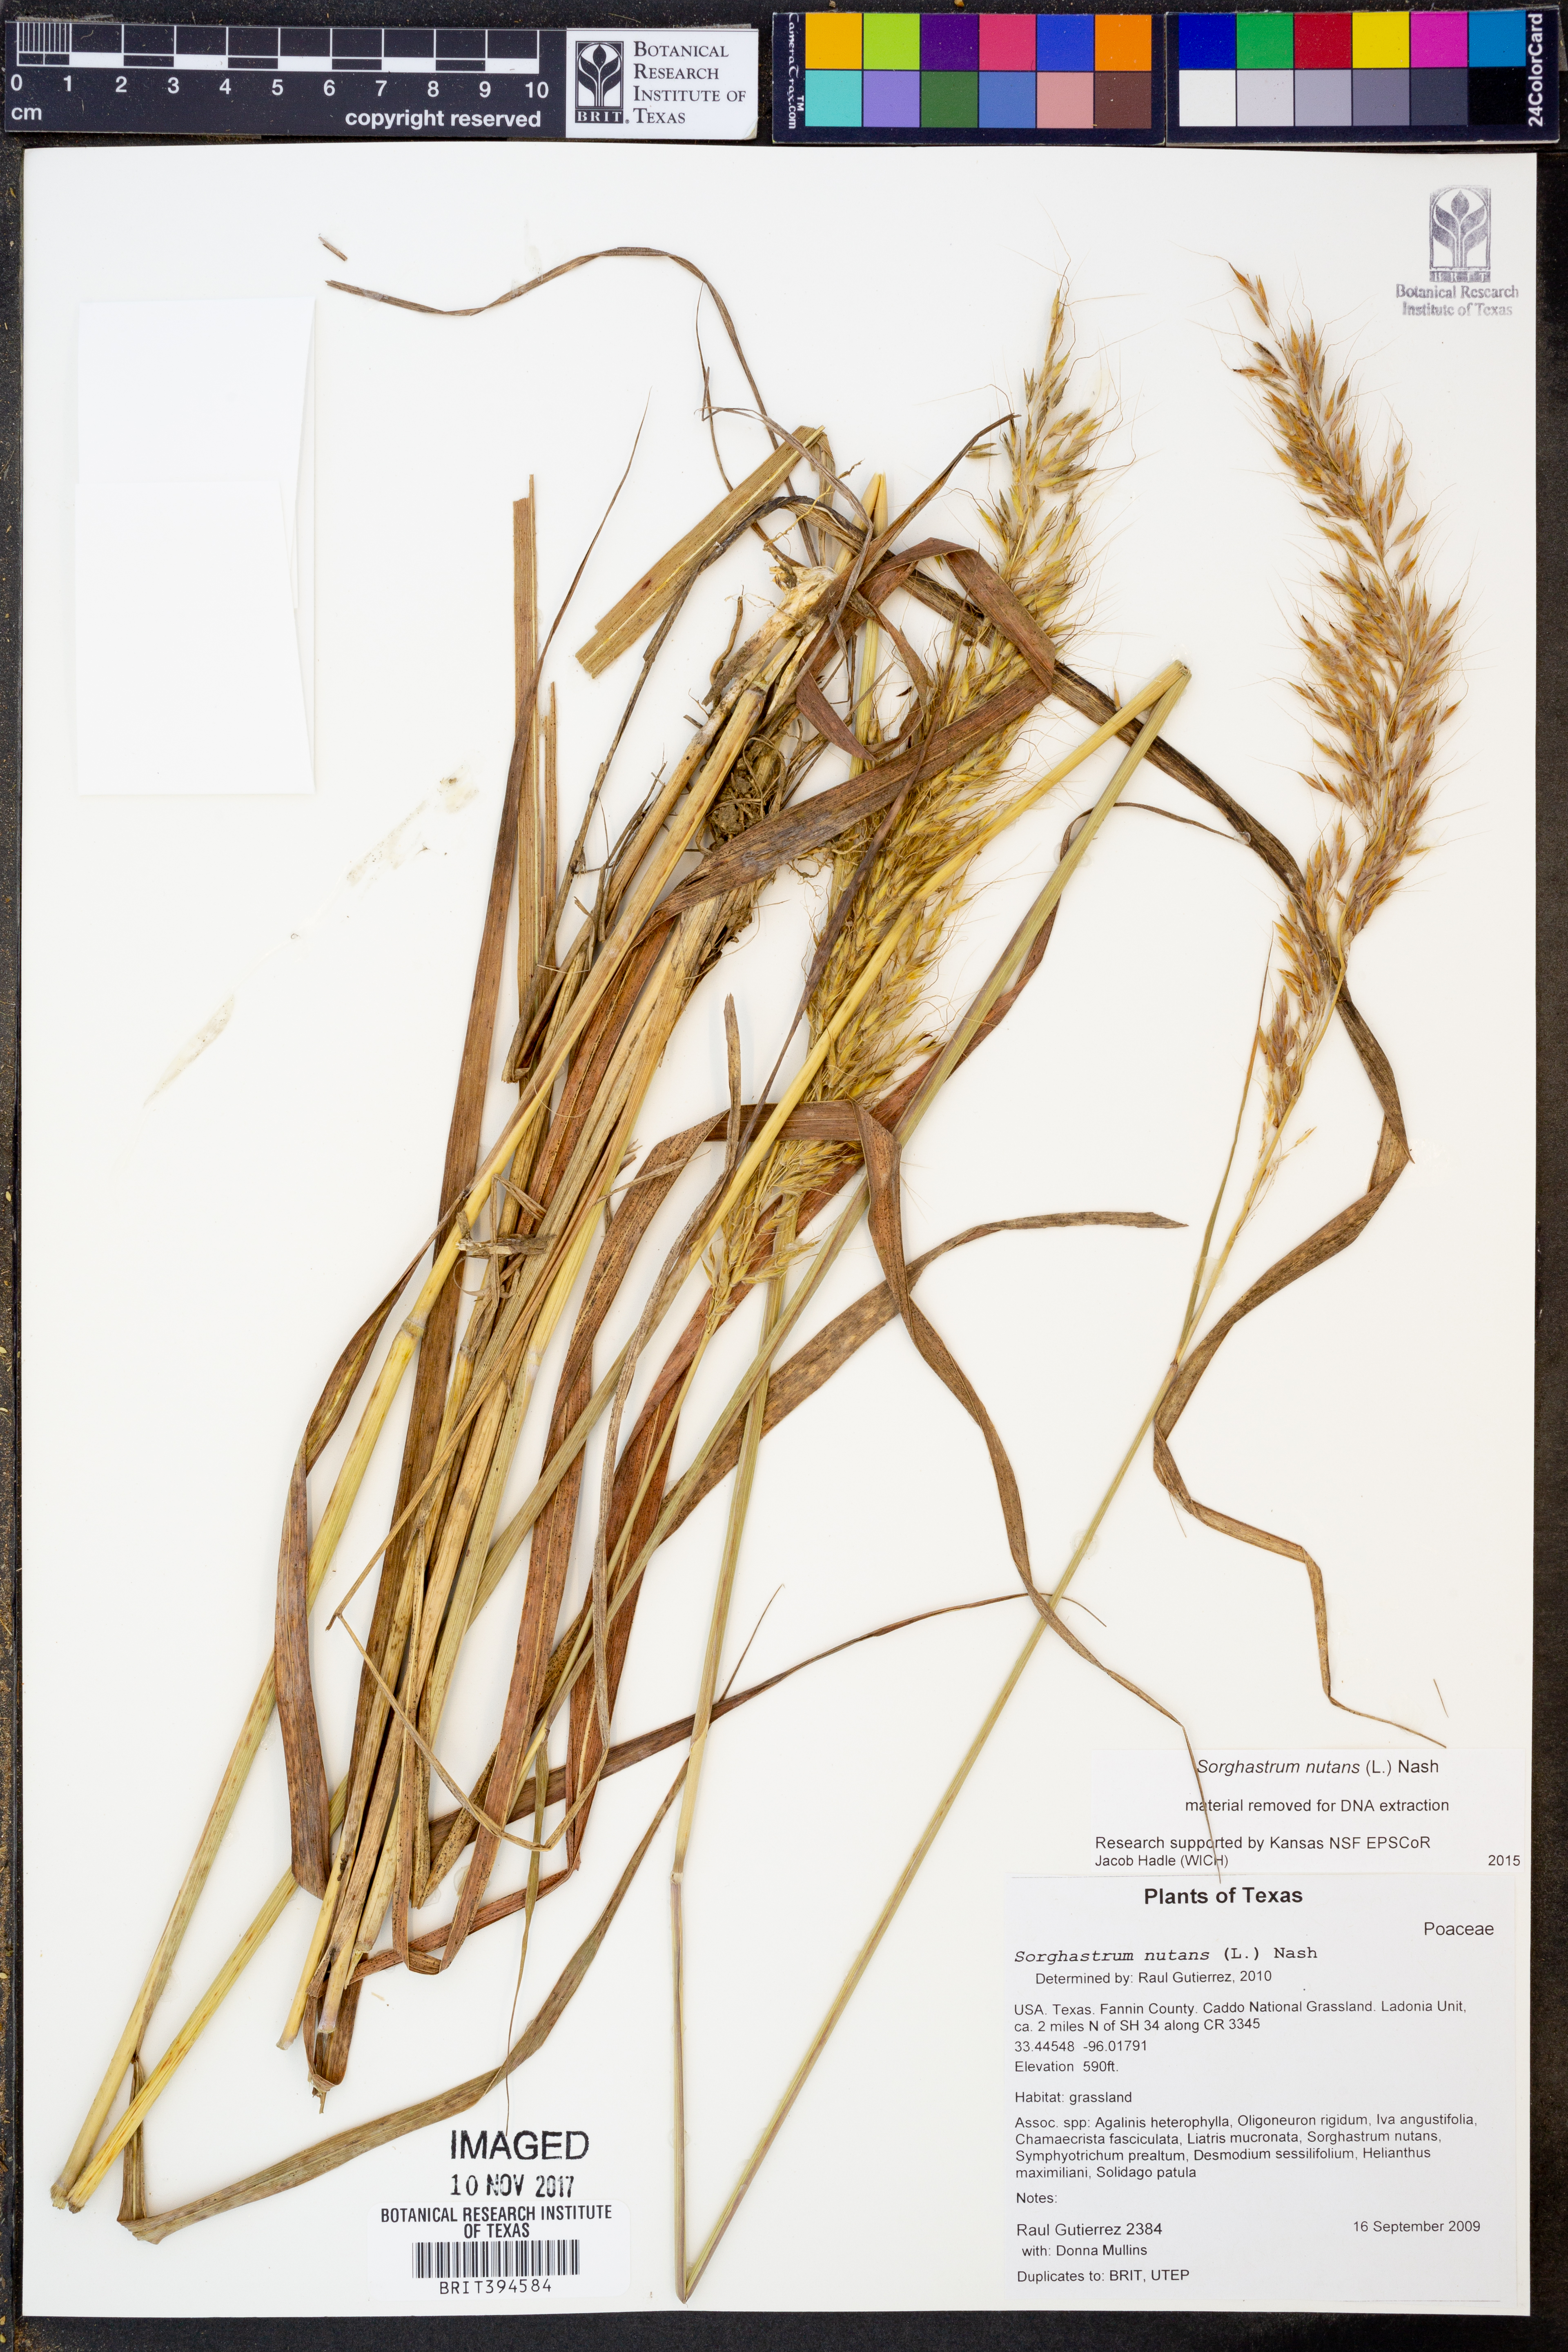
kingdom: Plantae
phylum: Tracheophyta
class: Liliopsida
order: Poales
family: Poaceae
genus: Sorghastrum
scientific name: Sorghastrum nutans
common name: Indian grass
